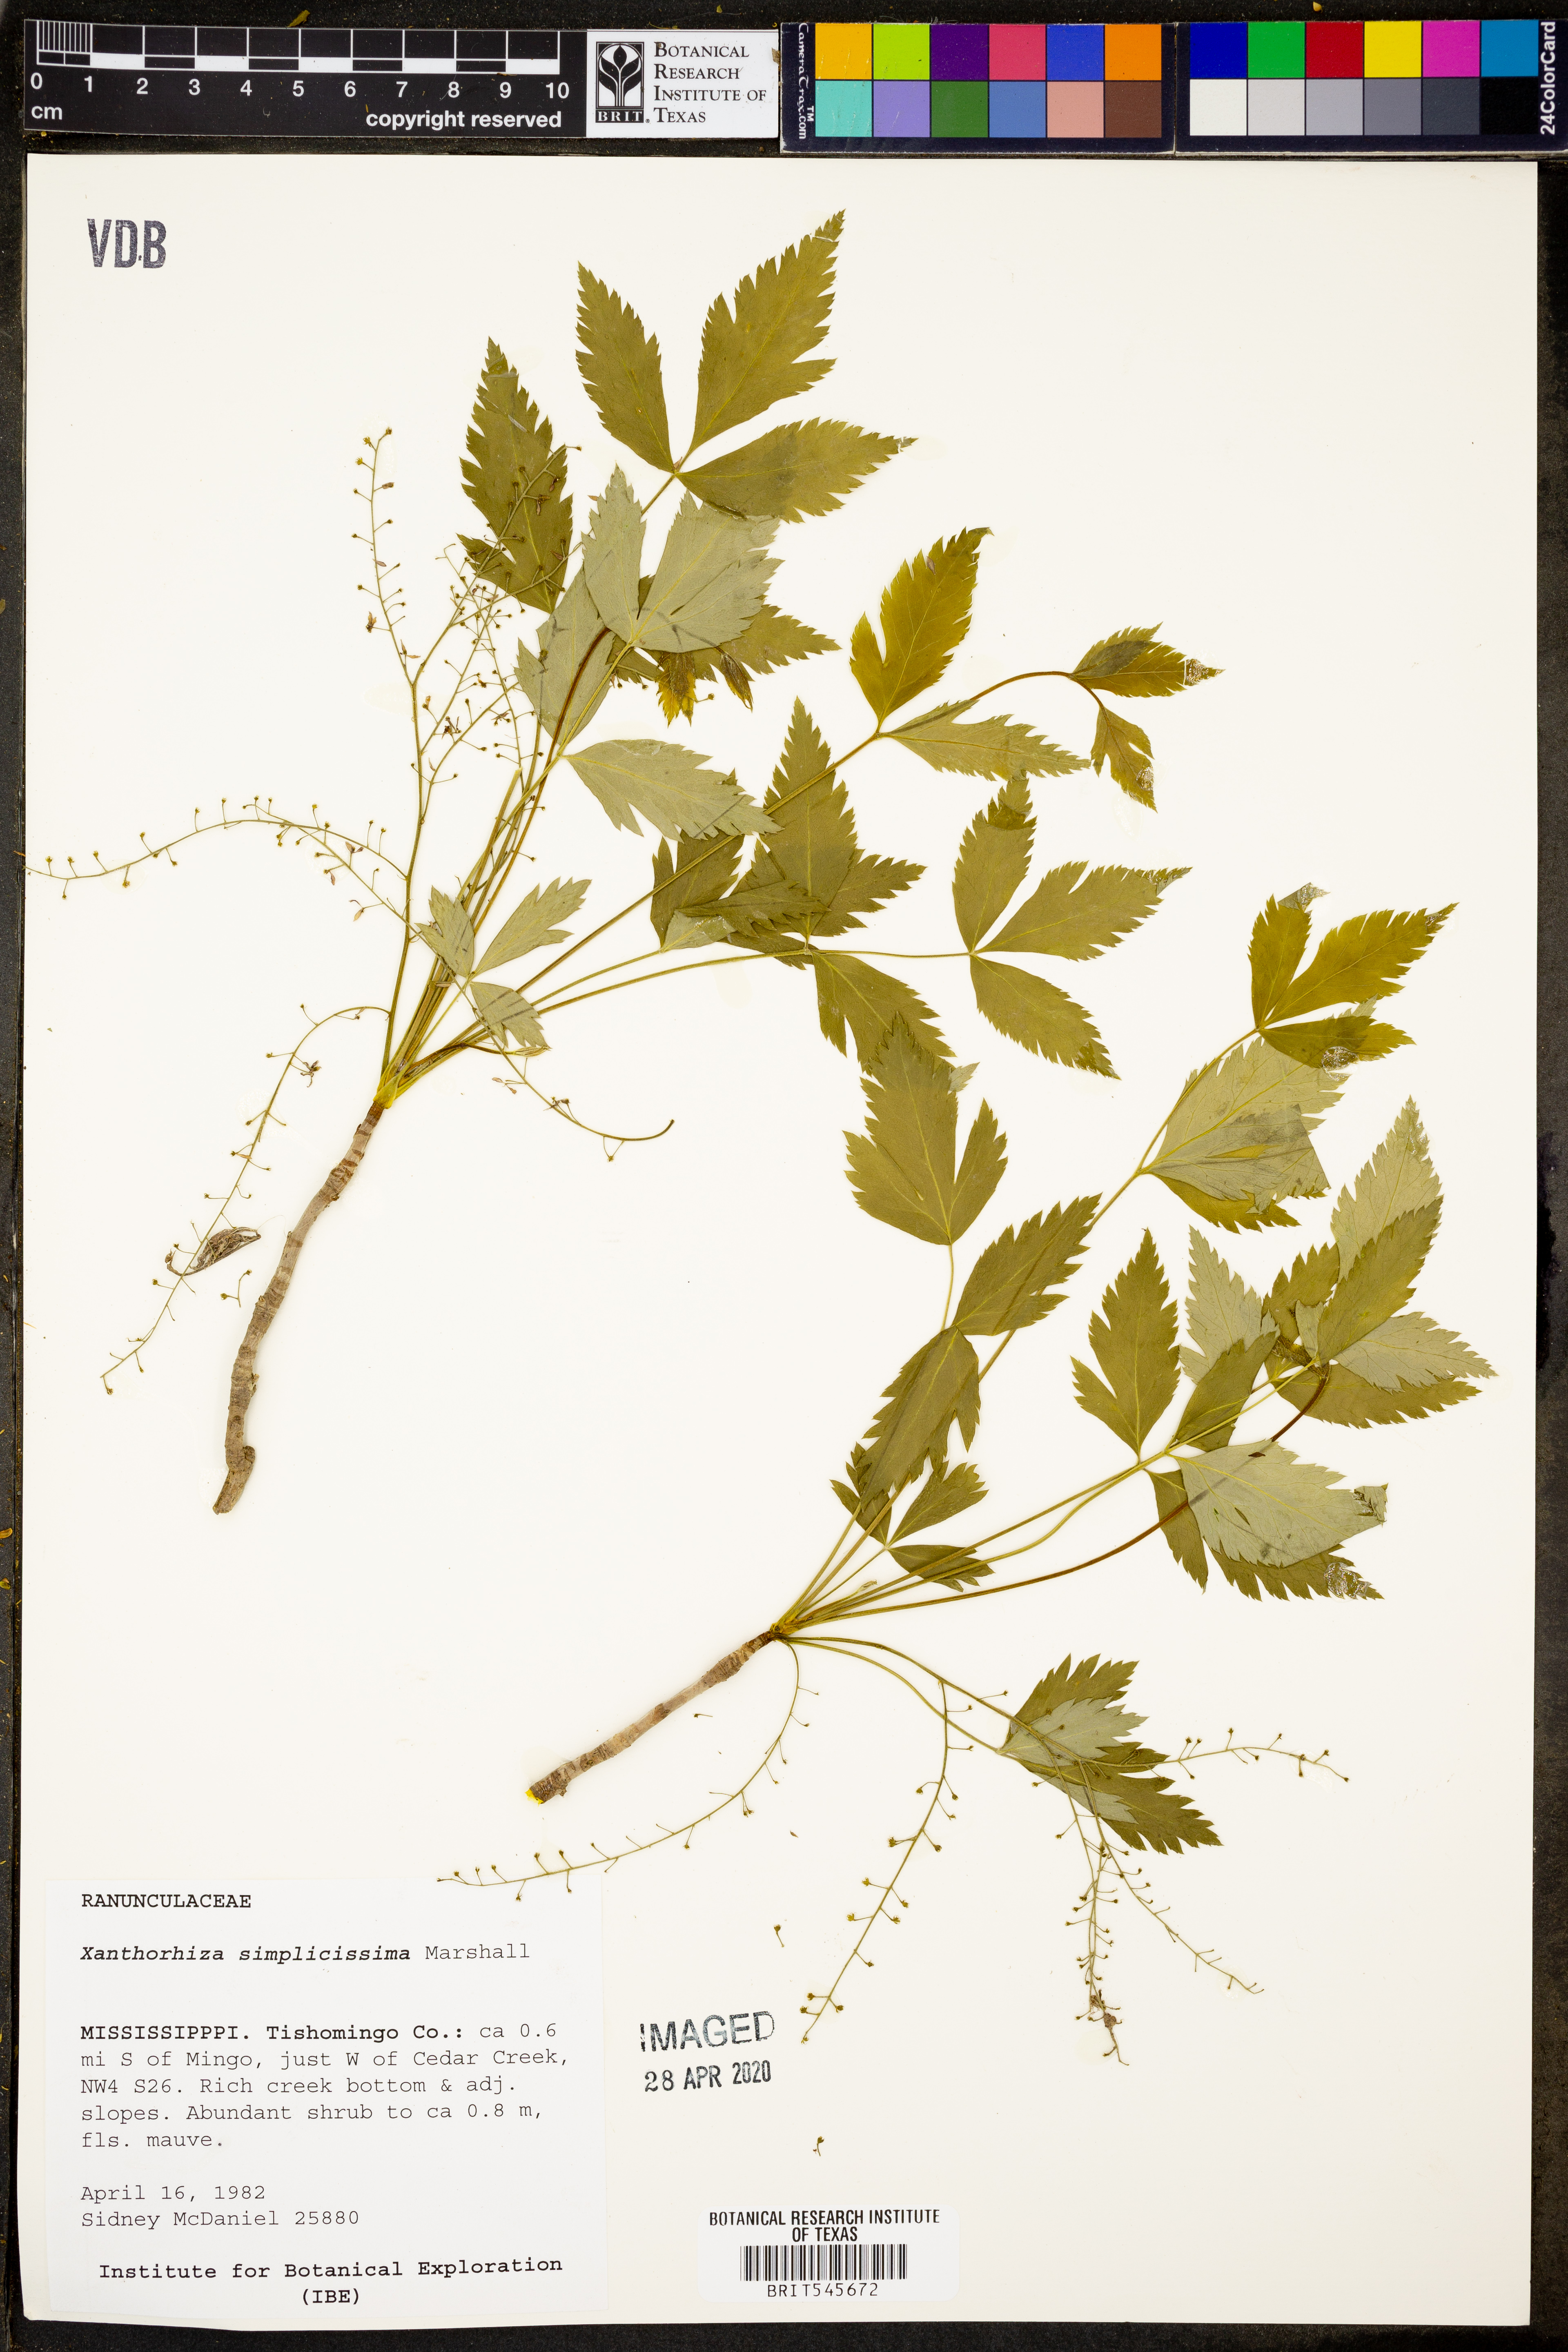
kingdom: Plantae
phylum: Tracheophyta
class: Magnoliopsida
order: Ranunculales
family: Ranunculaceae
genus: Xanthorhiza
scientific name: Xanthorhiza simplicissima
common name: Yellowroot
